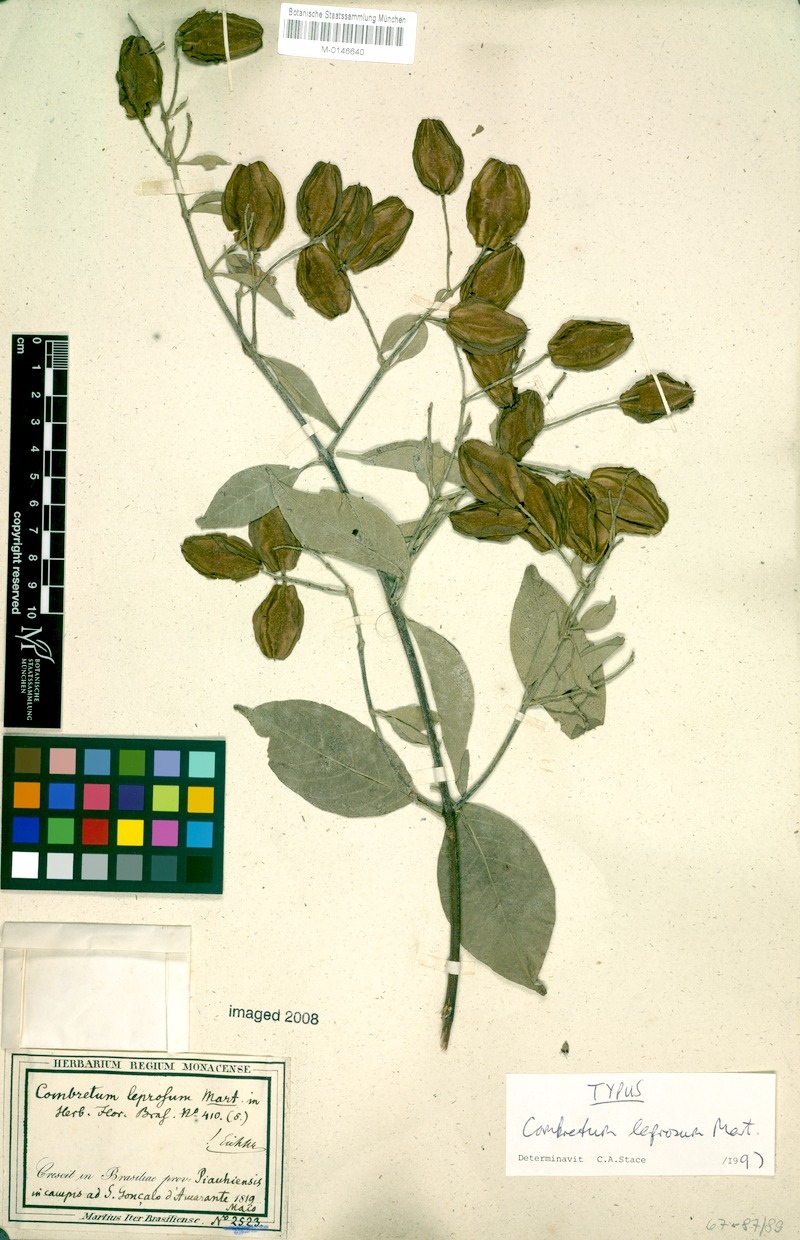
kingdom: Plantae
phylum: Tracheophyta
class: Magnoliopsida
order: Myrtales
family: Combretaceae
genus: Combretum
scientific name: Combretum leprosum
